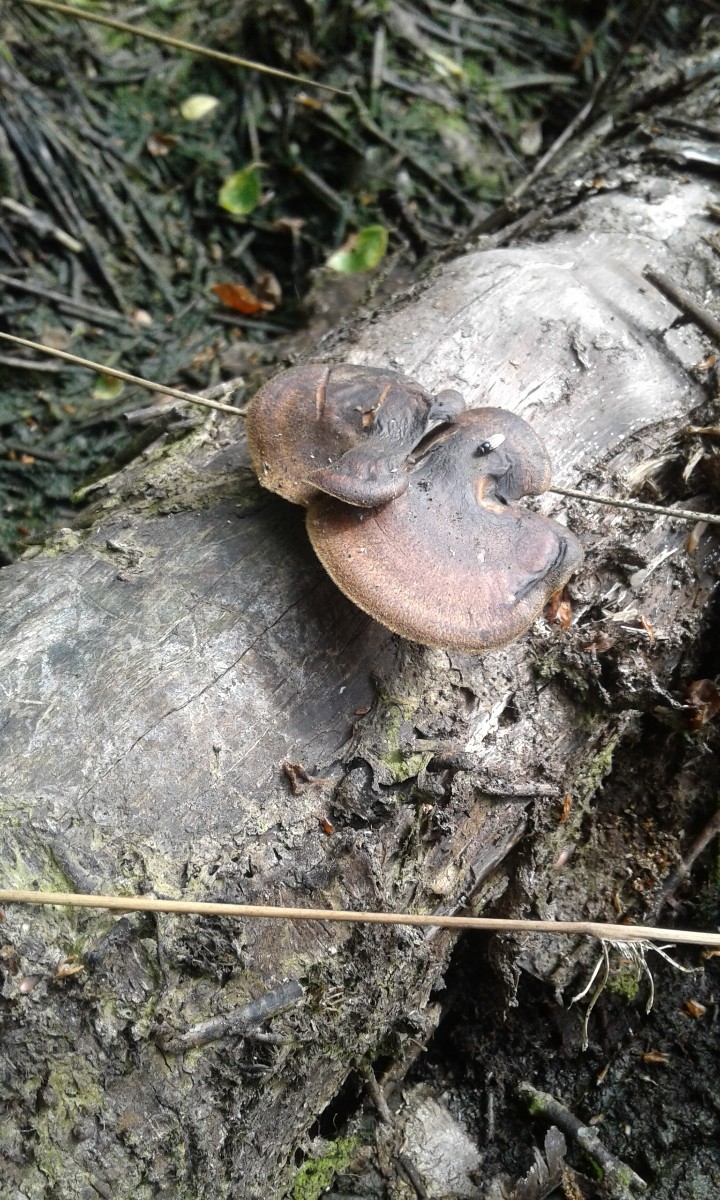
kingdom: Fungi
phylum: Basidiomycota
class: Agaricomycetes
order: Polyporales
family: Polyporaceae
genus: Lentinus
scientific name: Lentinus substrictus
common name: forårs-stilkporesvamp
